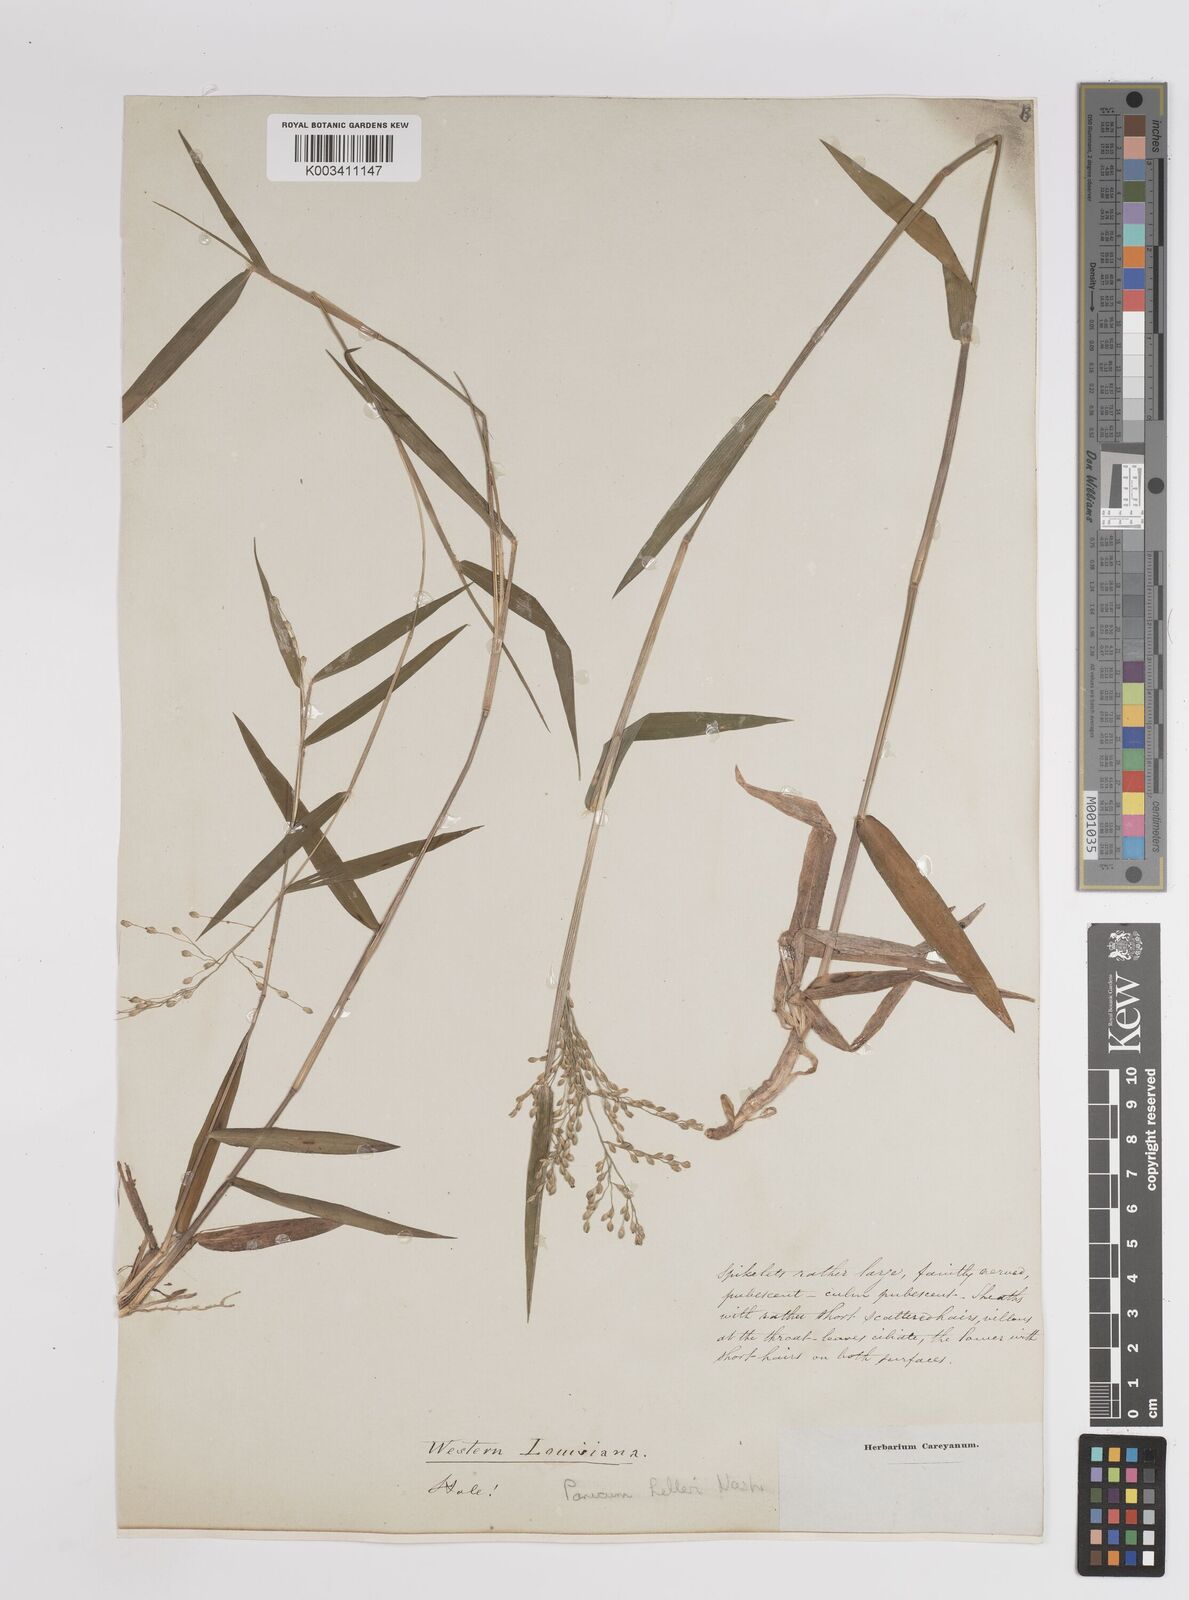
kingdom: Plantae
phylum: Tracheophyta
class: Liliopsida
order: Poales
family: Poaceae
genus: Dichanthelium
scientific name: Dichanthelium oligosanthes
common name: Few-anther obscuregrass
